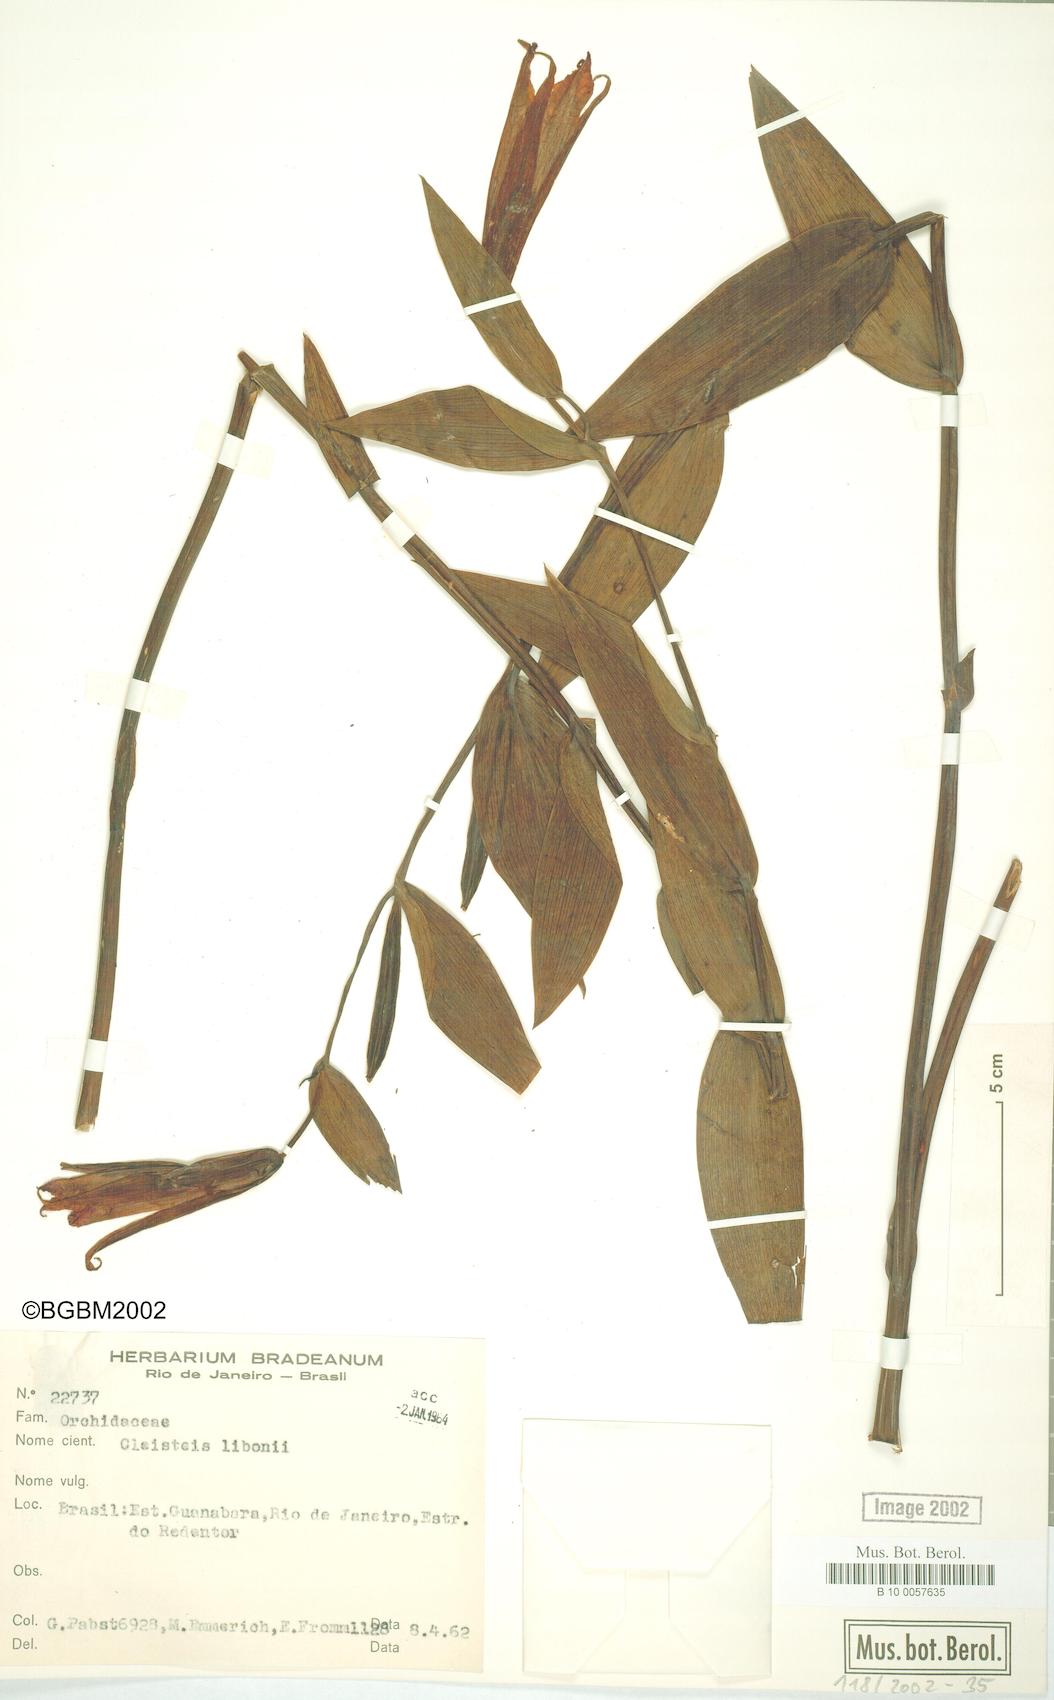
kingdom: Plantae
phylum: Tracheophyta
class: Liliopsida
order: Asparagales
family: Orchidaceae
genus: Cleistes
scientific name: Cleistes libonii
